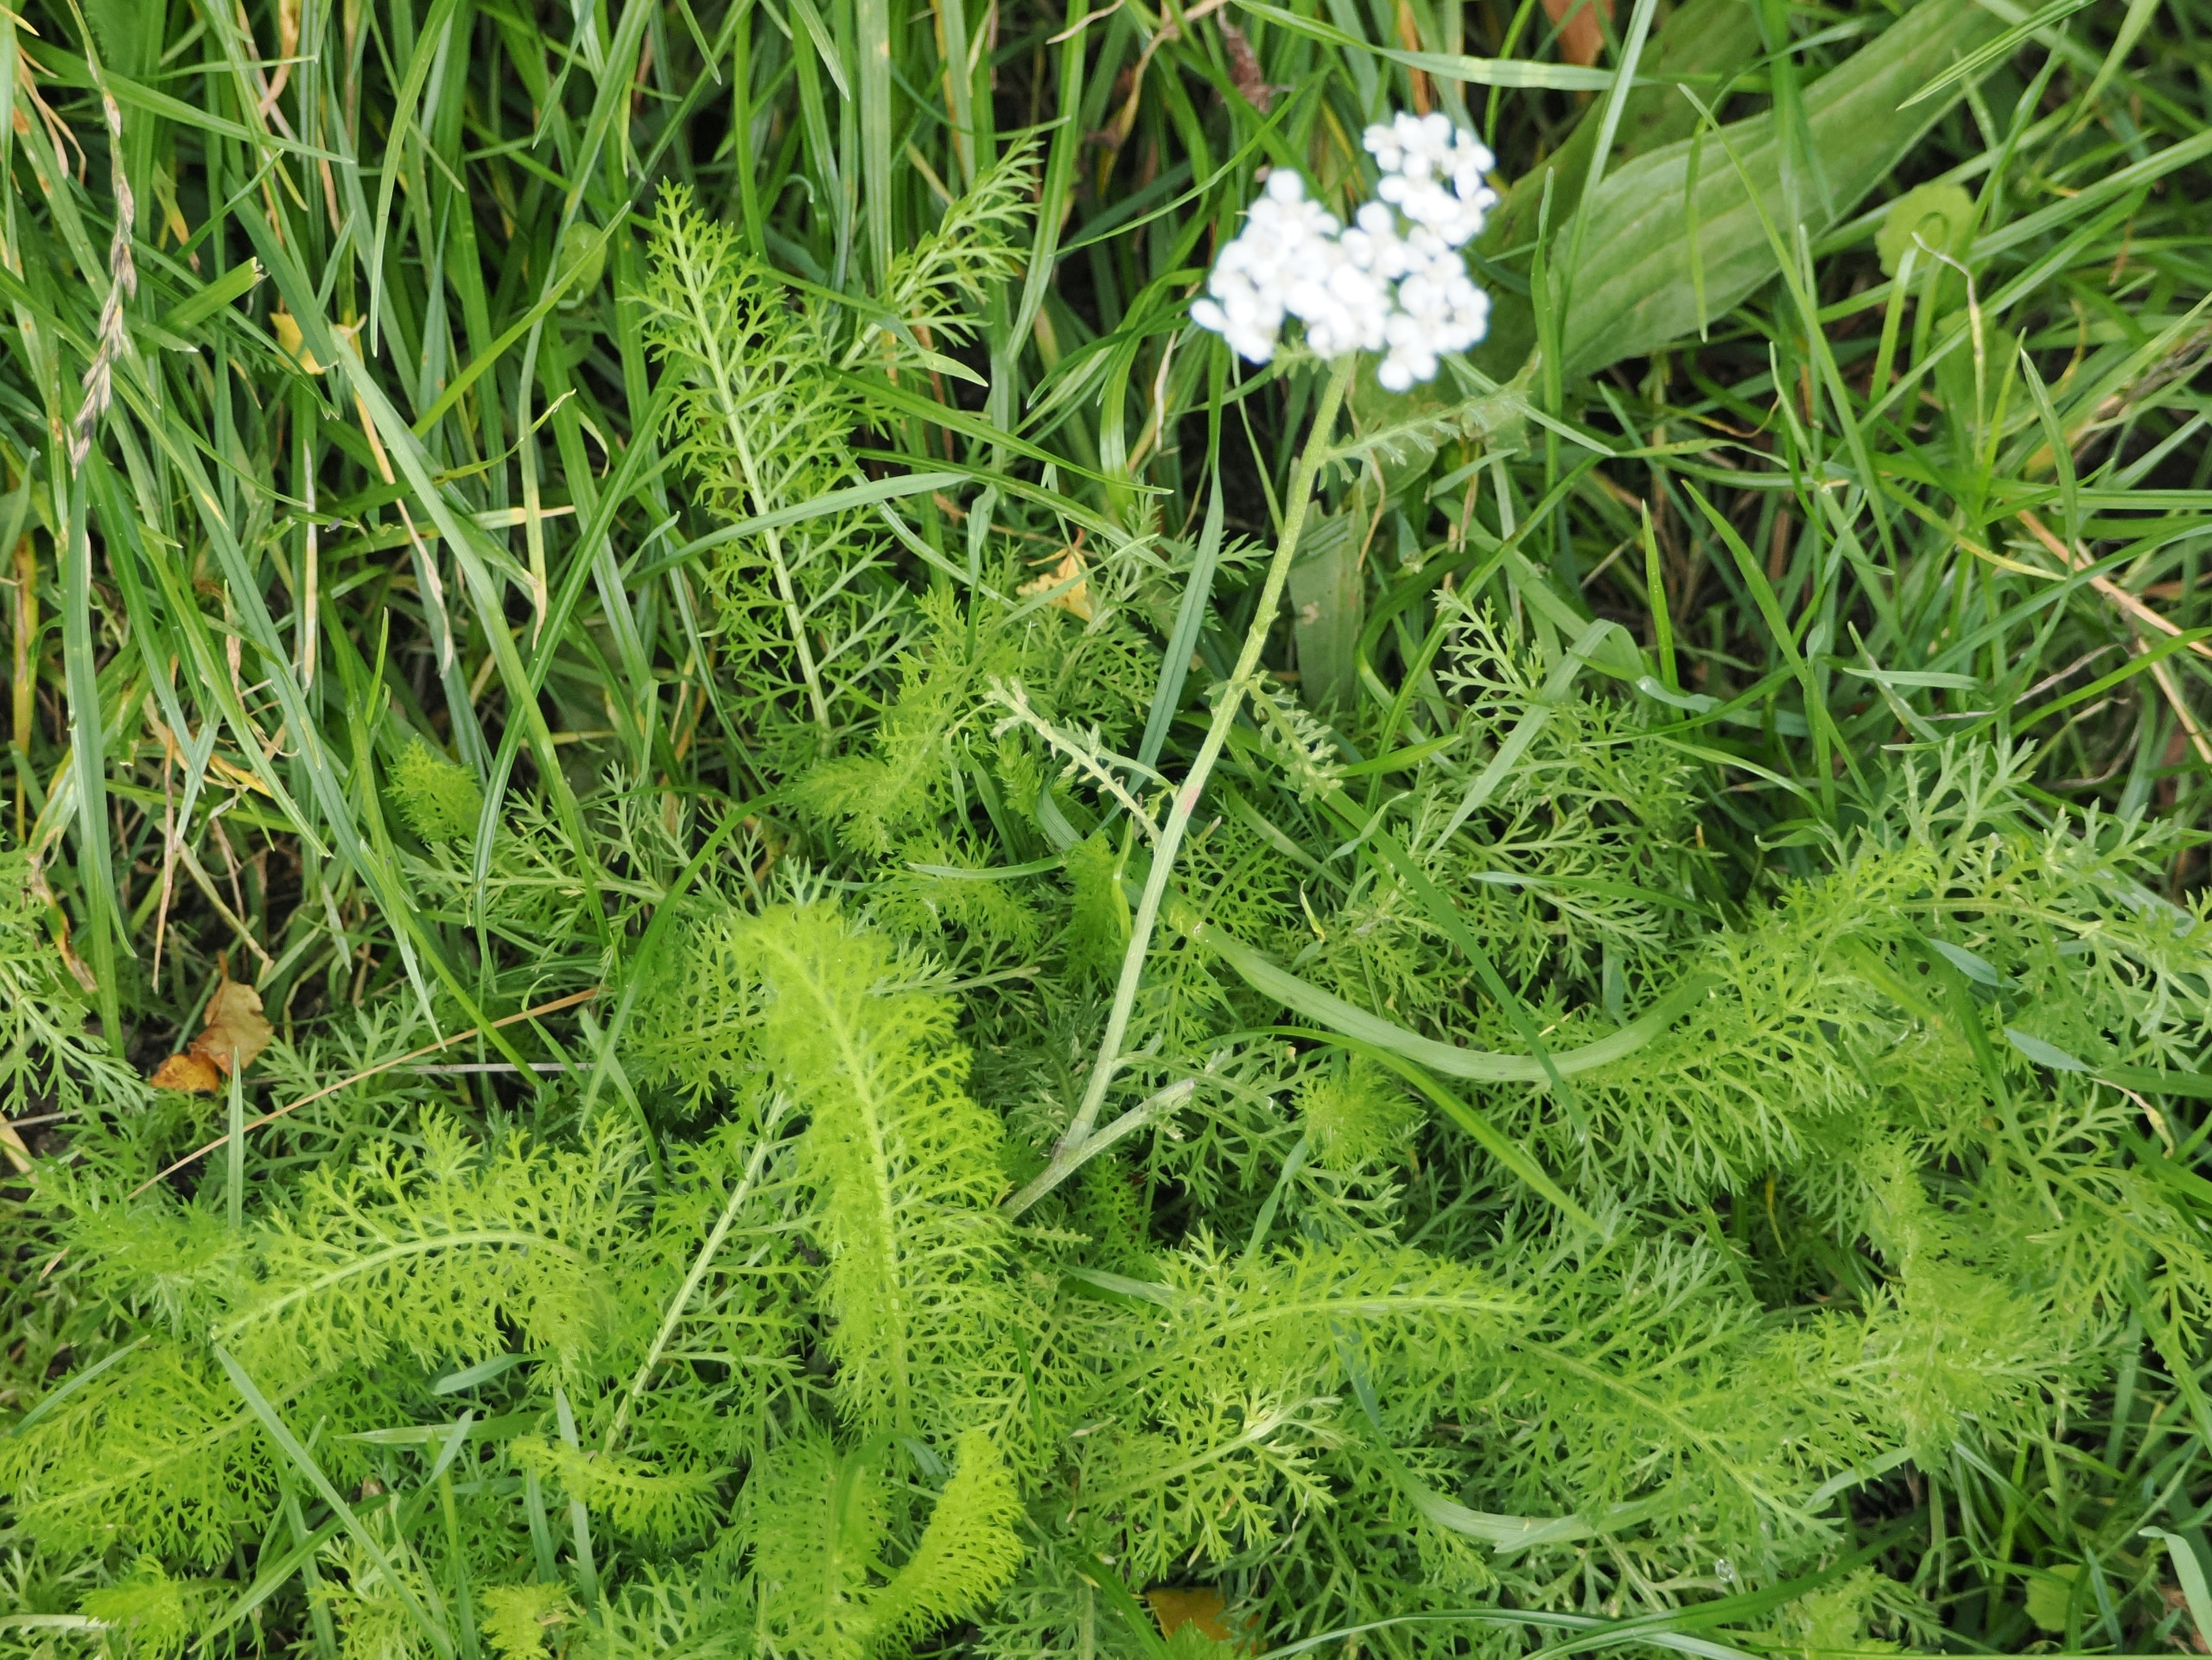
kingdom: Plantae
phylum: Tracheophyta
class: Magnoliopsida
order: Asterales
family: Asteraceae
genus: Achillea
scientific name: Achillea millefolium
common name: Almindelig røllike
